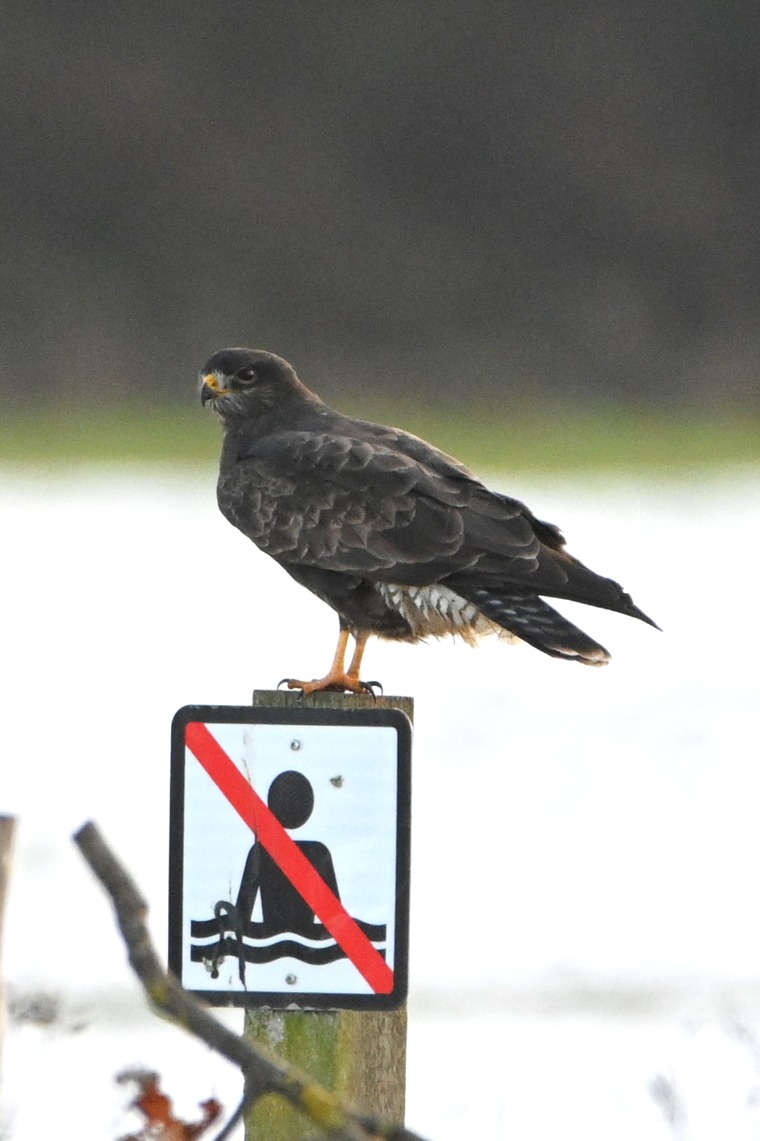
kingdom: Animalia
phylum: Chordata
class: Aves
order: Accipitriformes
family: Accipitridae
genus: Buteo
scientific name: Buteo buteo
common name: Musvåge
